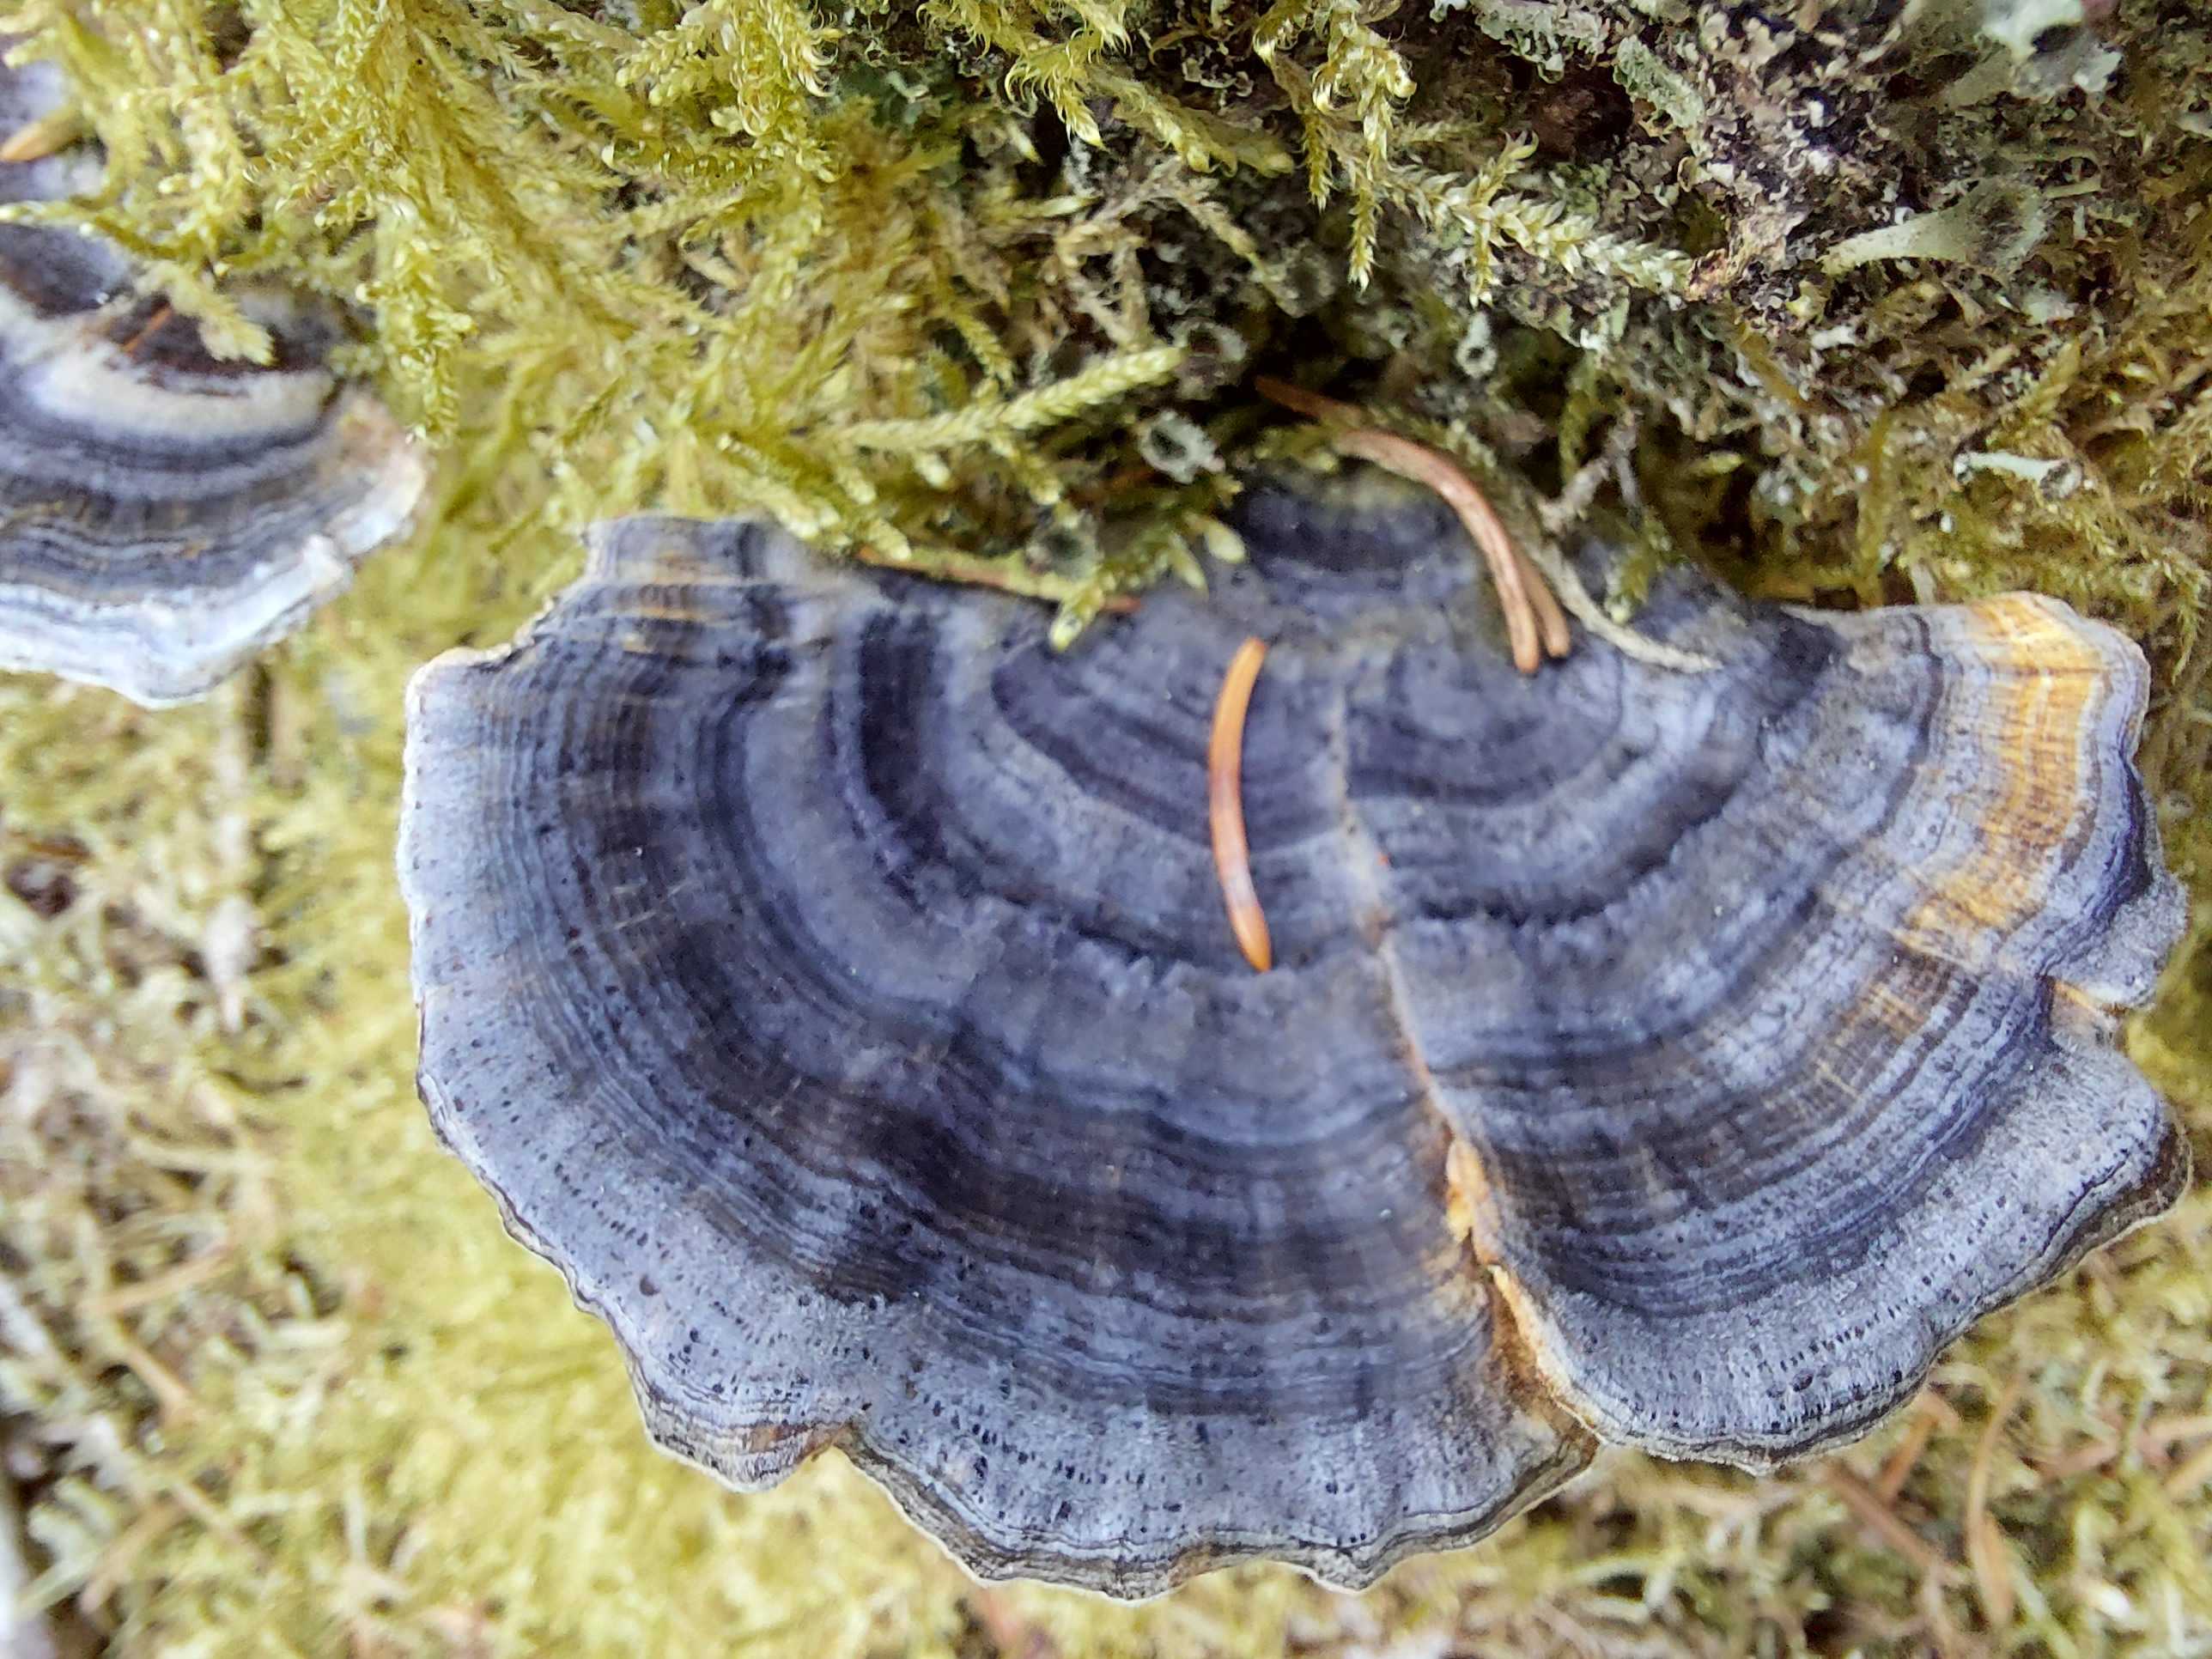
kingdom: Fungi
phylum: Basidiomycota
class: Agaricomycetes
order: Polyporales
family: Polyporaceae
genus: Trametes
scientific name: Trametes versicolor
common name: broget læderporesvamp
